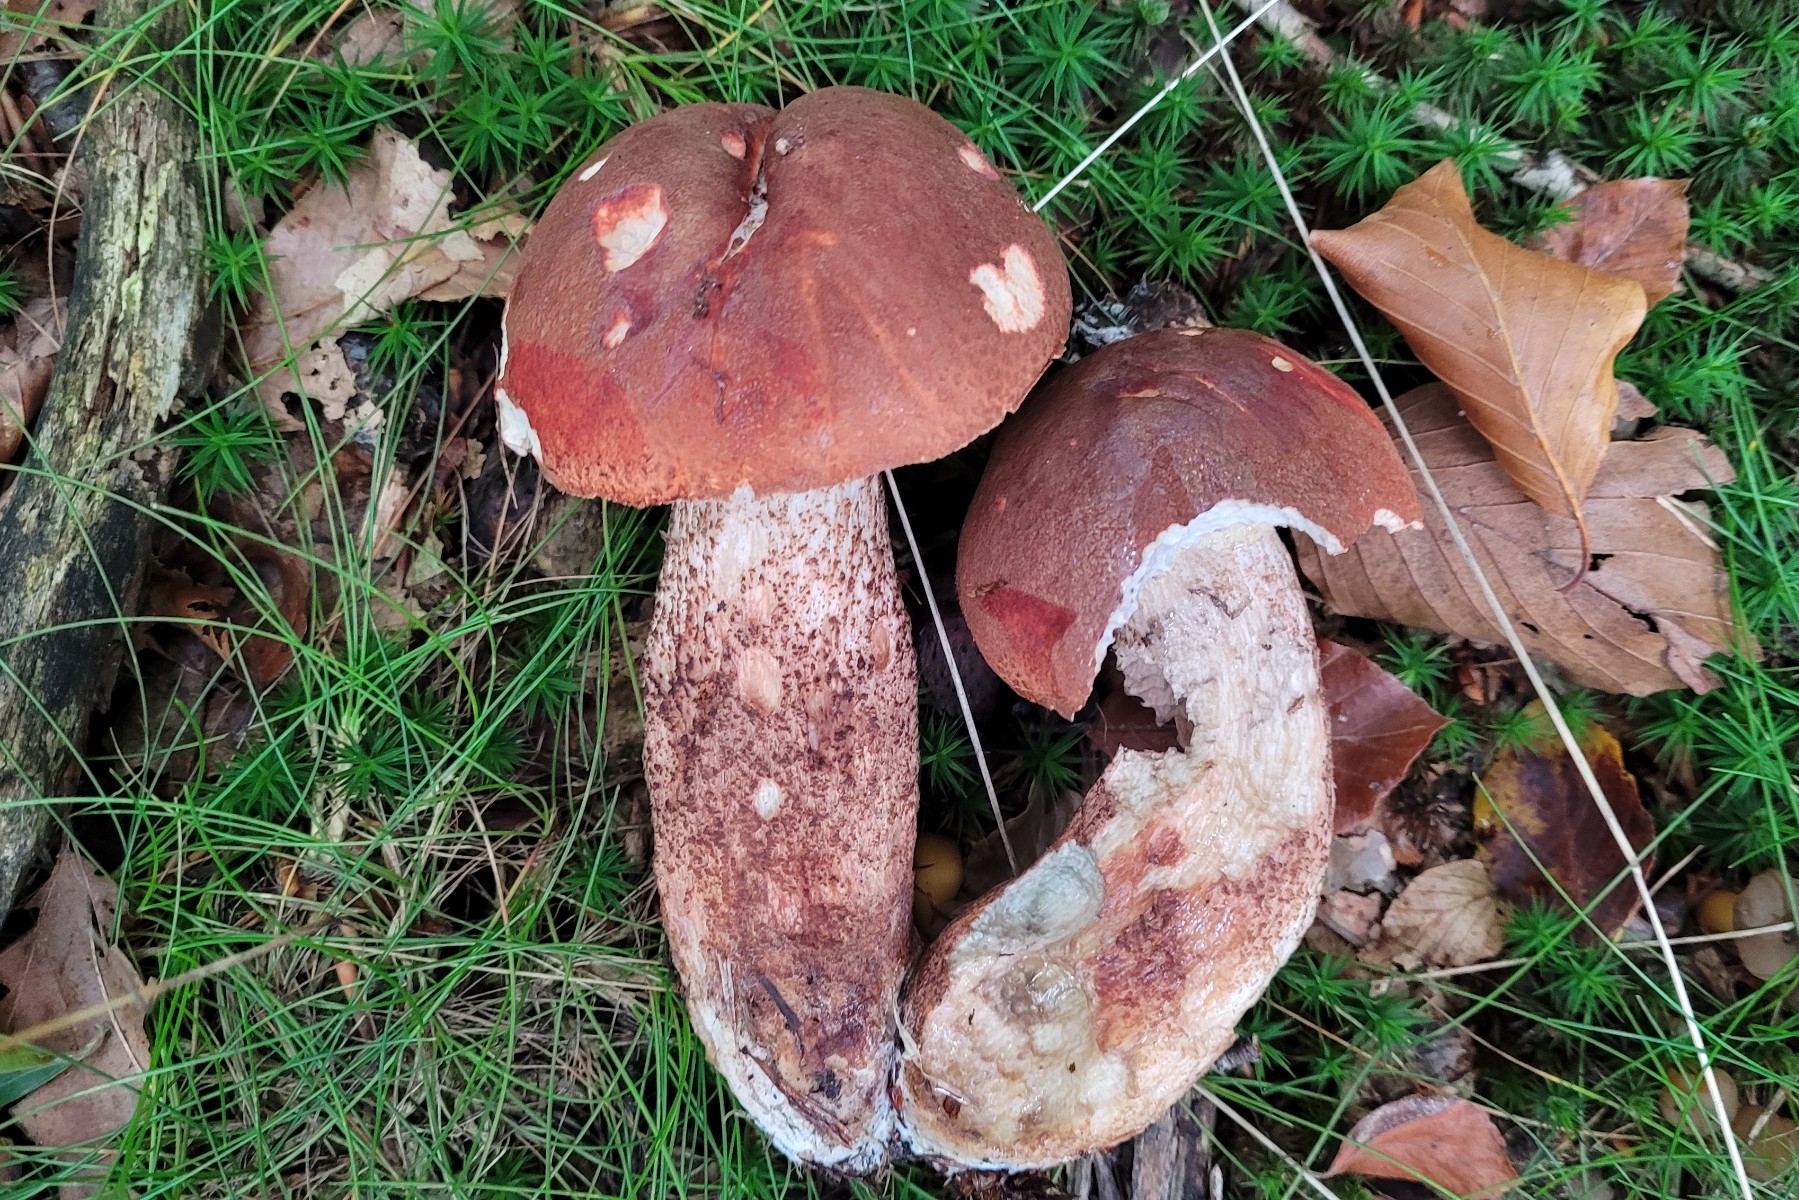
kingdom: Fungi
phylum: Basidiomycota
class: Agaricomycetes
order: Boletales
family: Boletaceae
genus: Leccinum
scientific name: Leccinum aurantiacum
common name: rustrød skælrørhat
